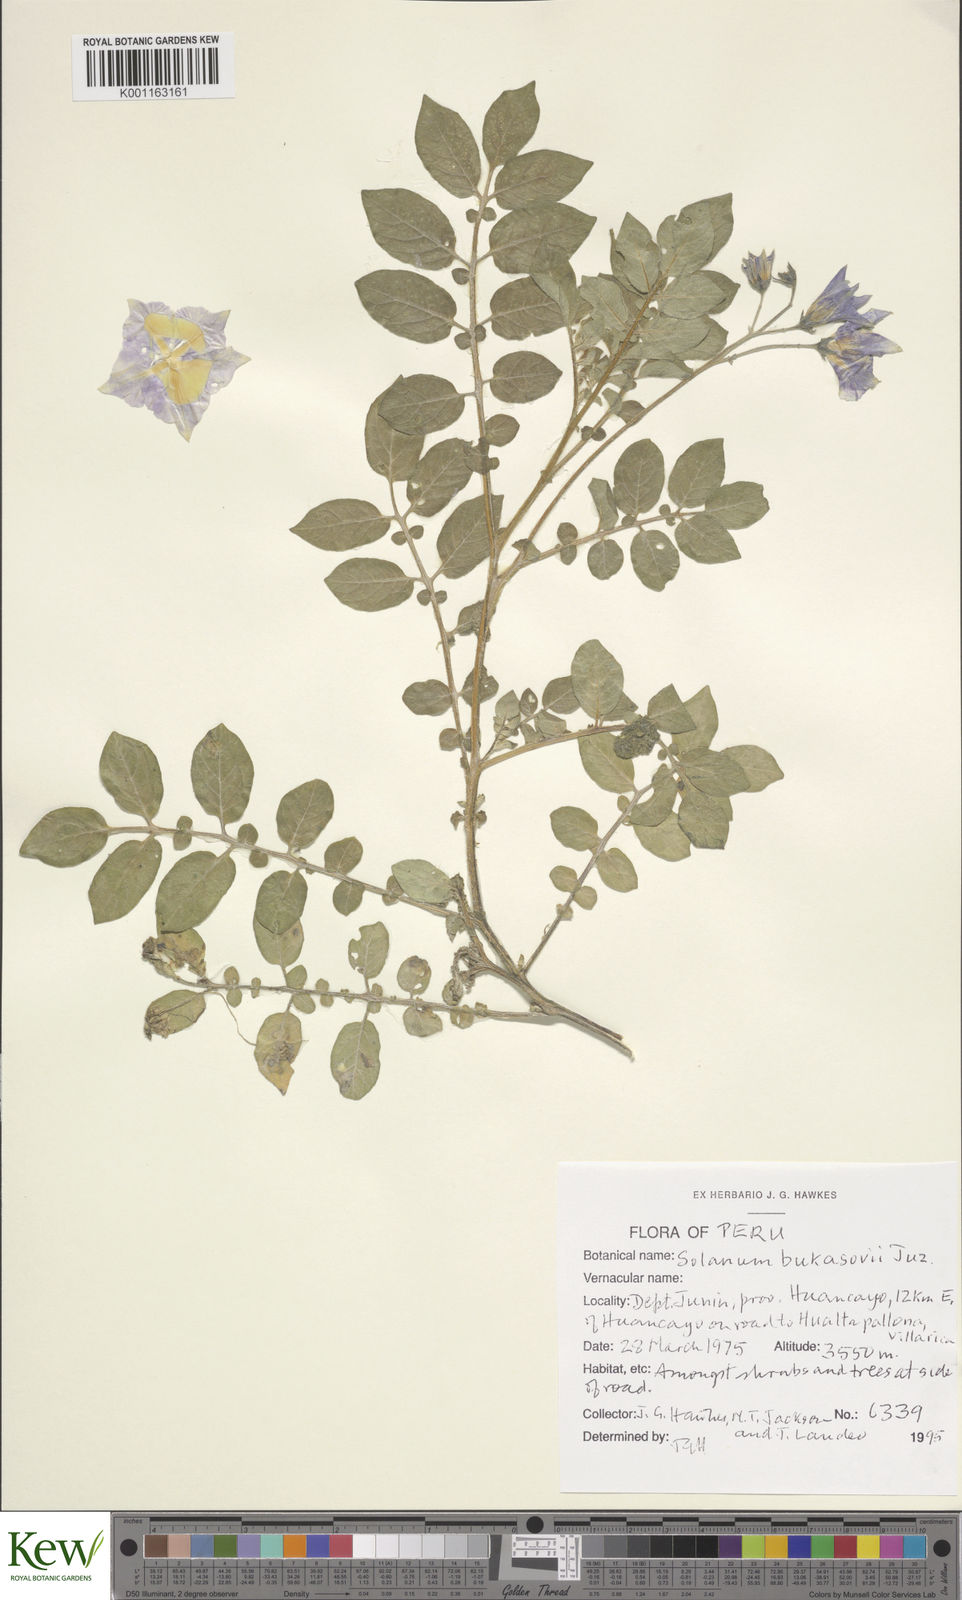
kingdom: Plantae
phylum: Tracheophyta
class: Magnoliopsida
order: Solanales
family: Solanaceae
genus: Solanum
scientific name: Solanum candolleanum
